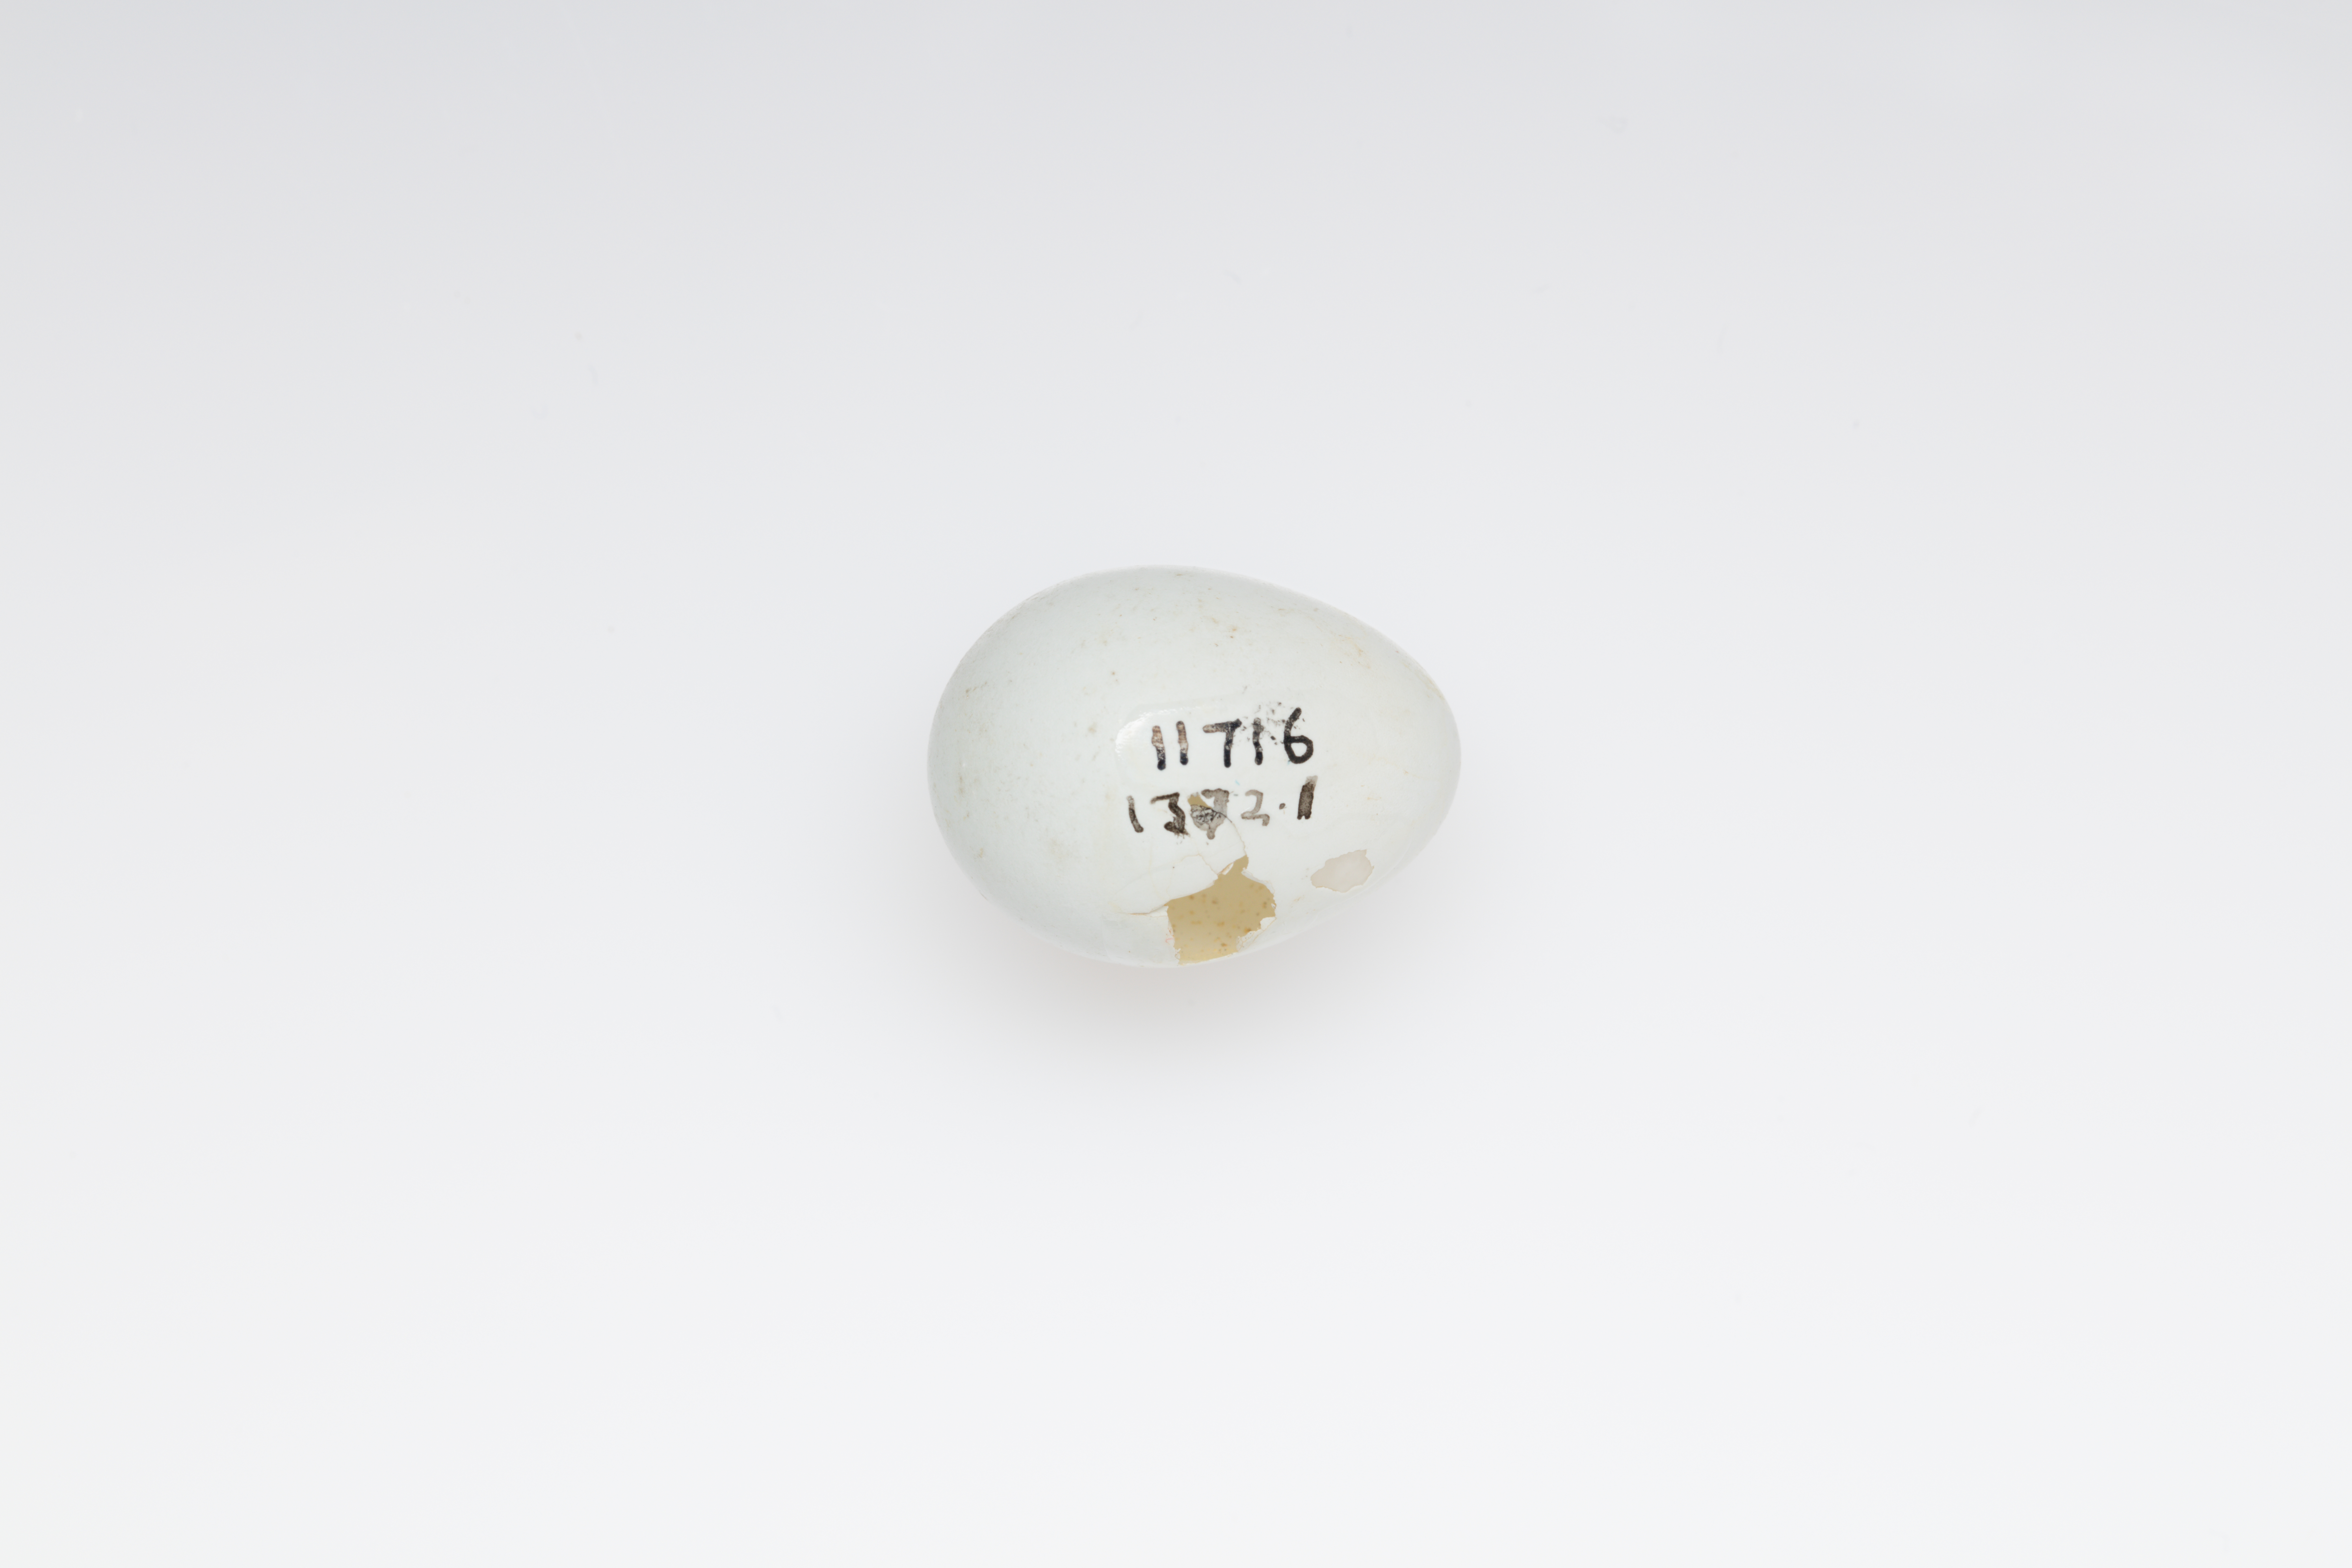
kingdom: Animalia
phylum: Chordata
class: Aves
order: Passeriformes
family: Zosteropidae
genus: Zosterops
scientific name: Zosterops albogularis
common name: White-chested white-eye
